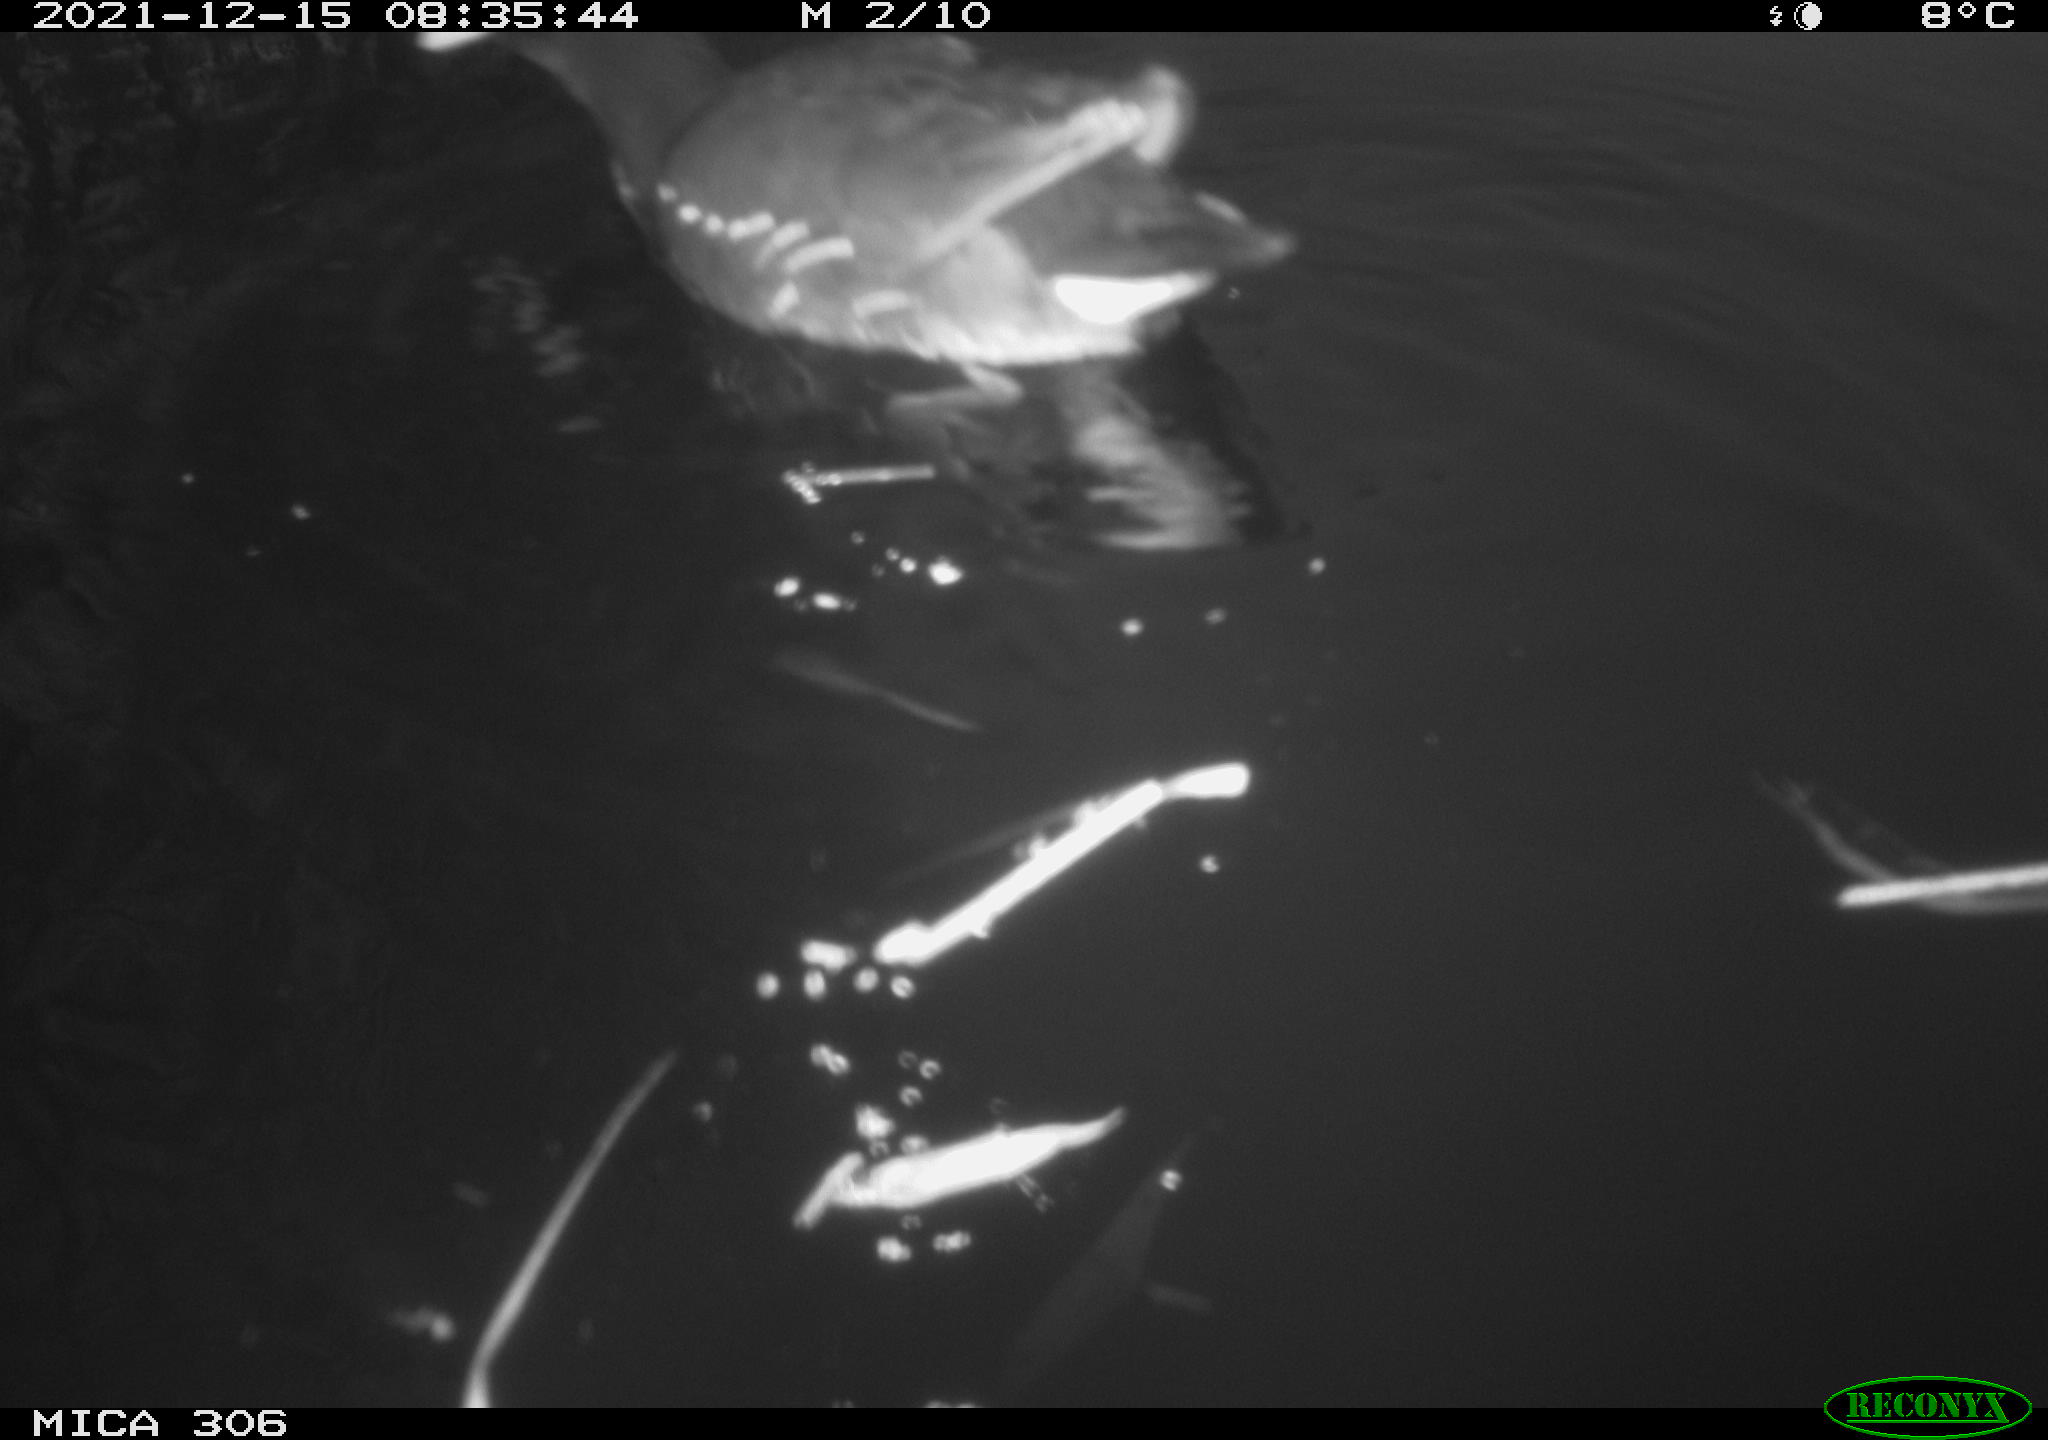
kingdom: Animalia
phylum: Chordata
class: Aves
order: Gruiformes
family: Rallidae
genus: Gallinula
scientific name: Gallinula chloropus
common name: Common moorhen
